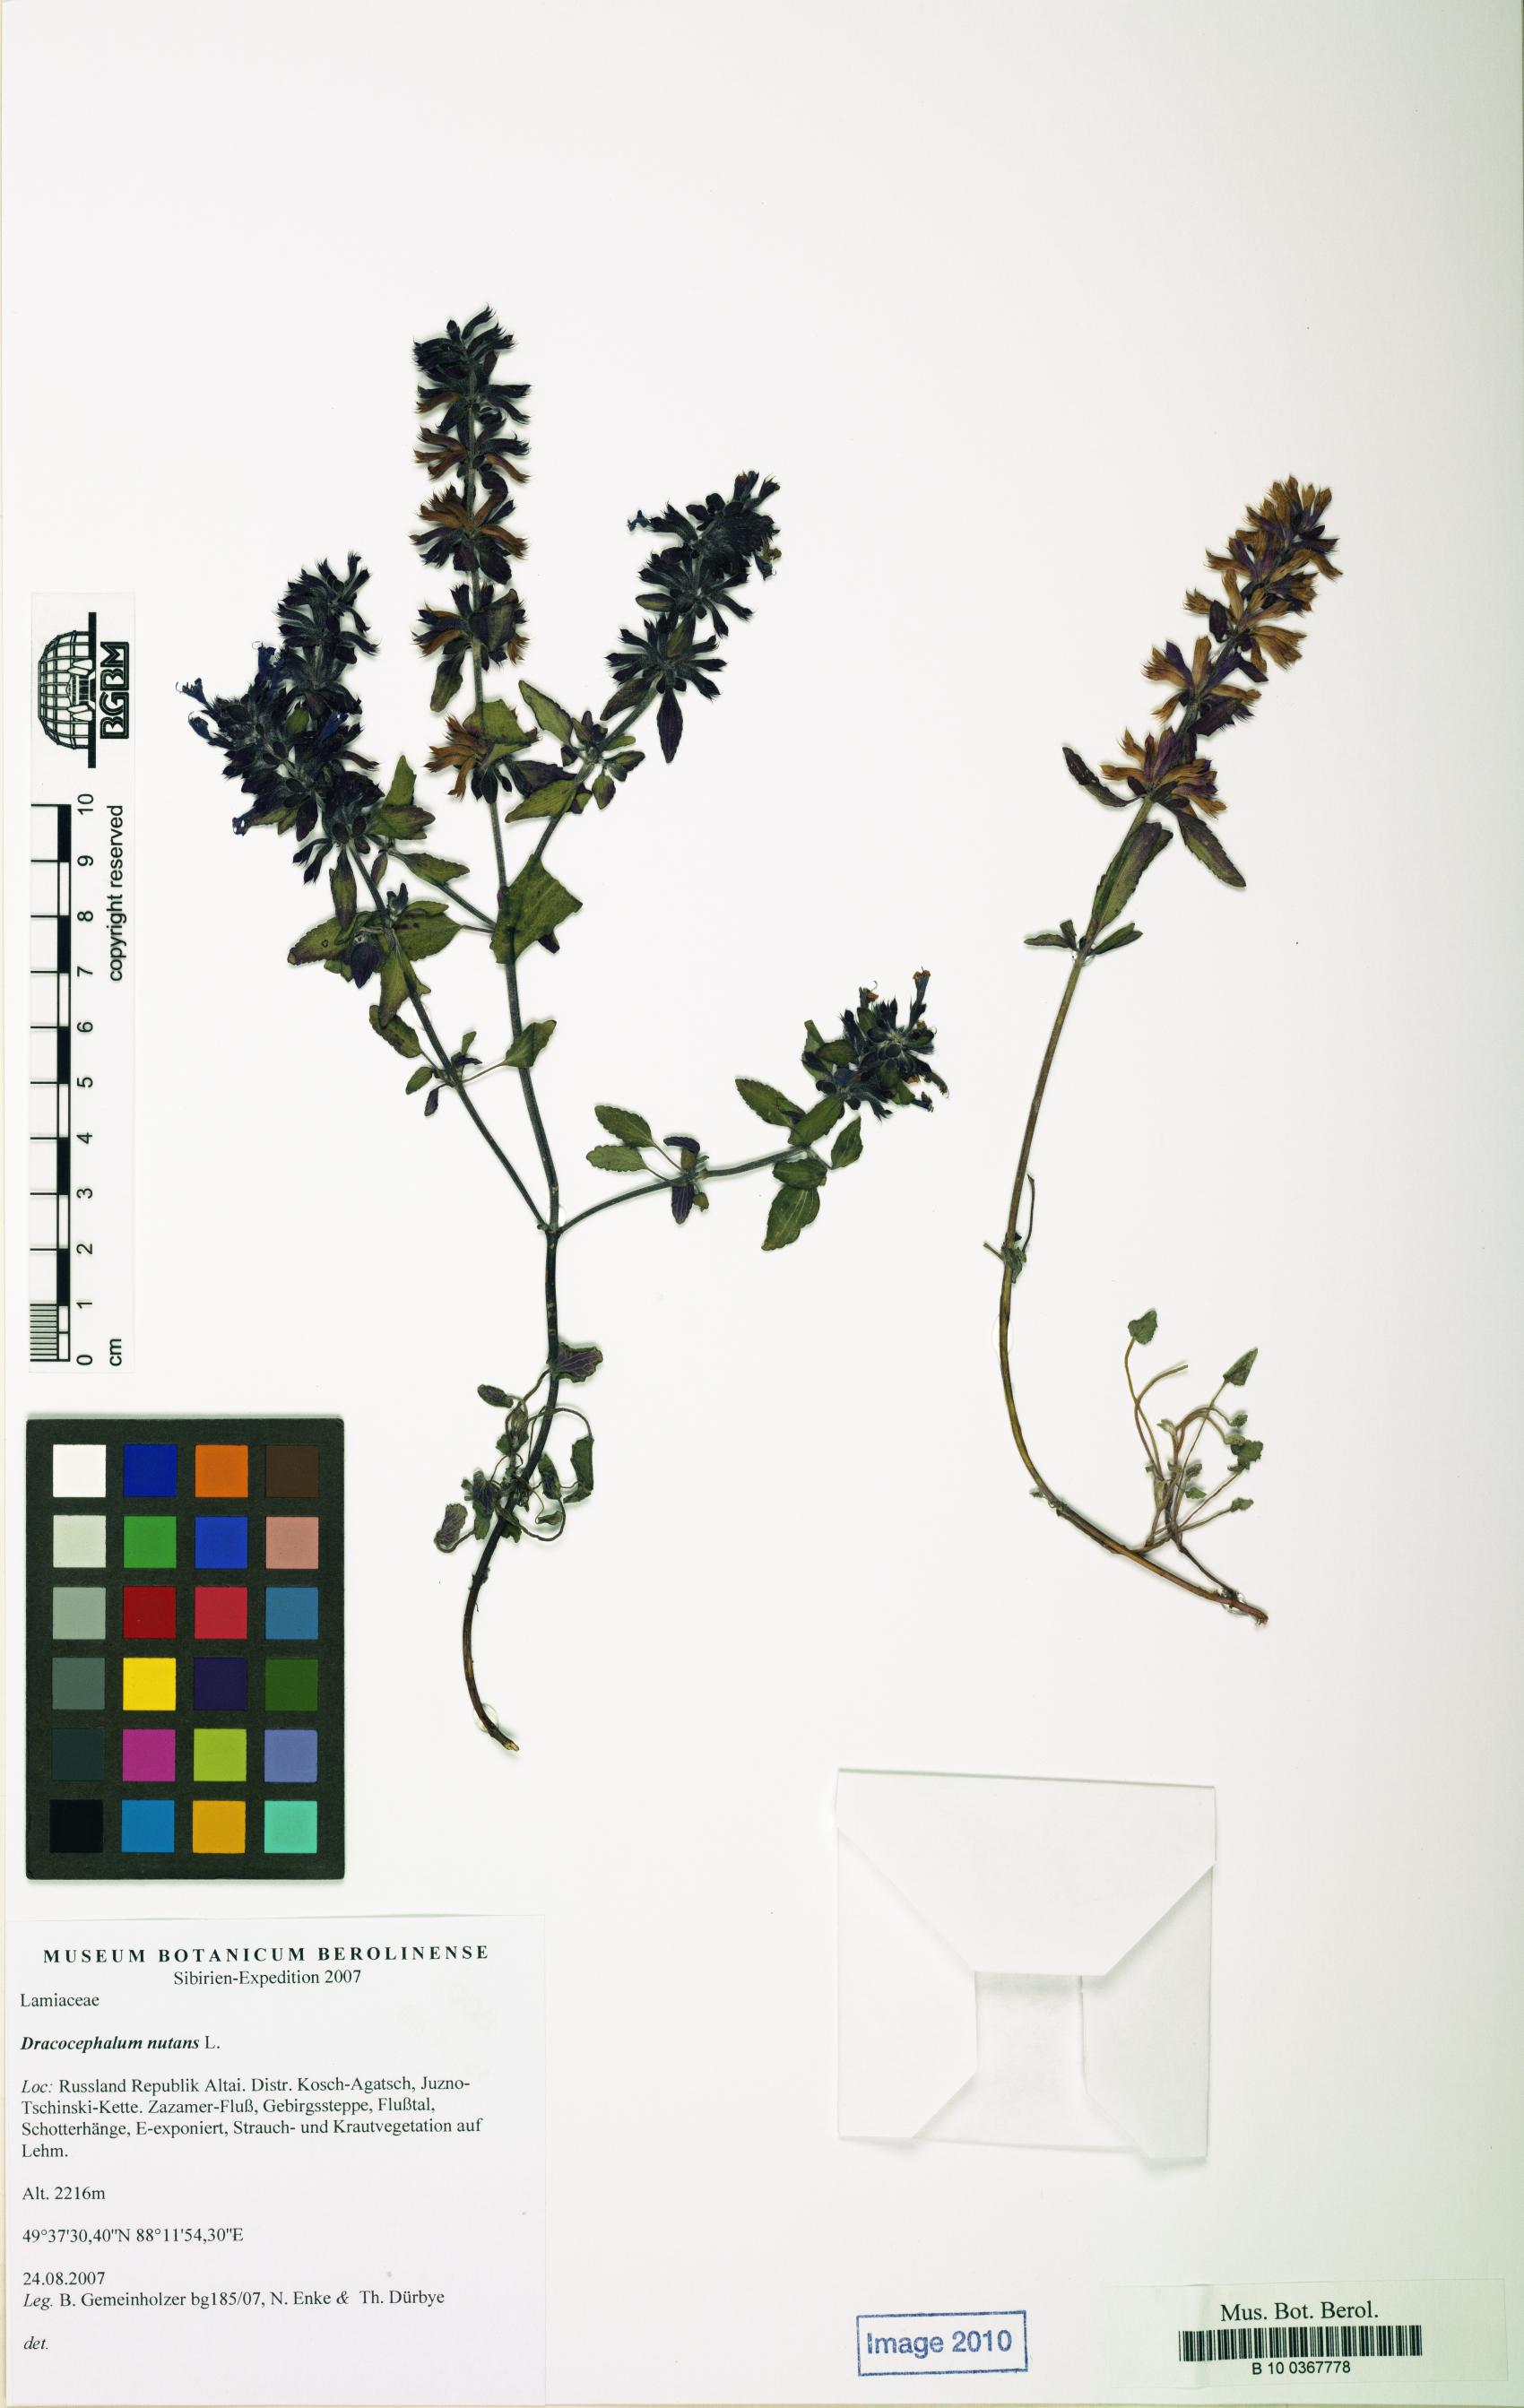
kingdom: Plantae
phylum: Tracheophyta
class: Magnoliopsida
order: Lamiales
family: Lamiaceae
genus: Dracocephalum
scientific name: Dracocephalum nutans
